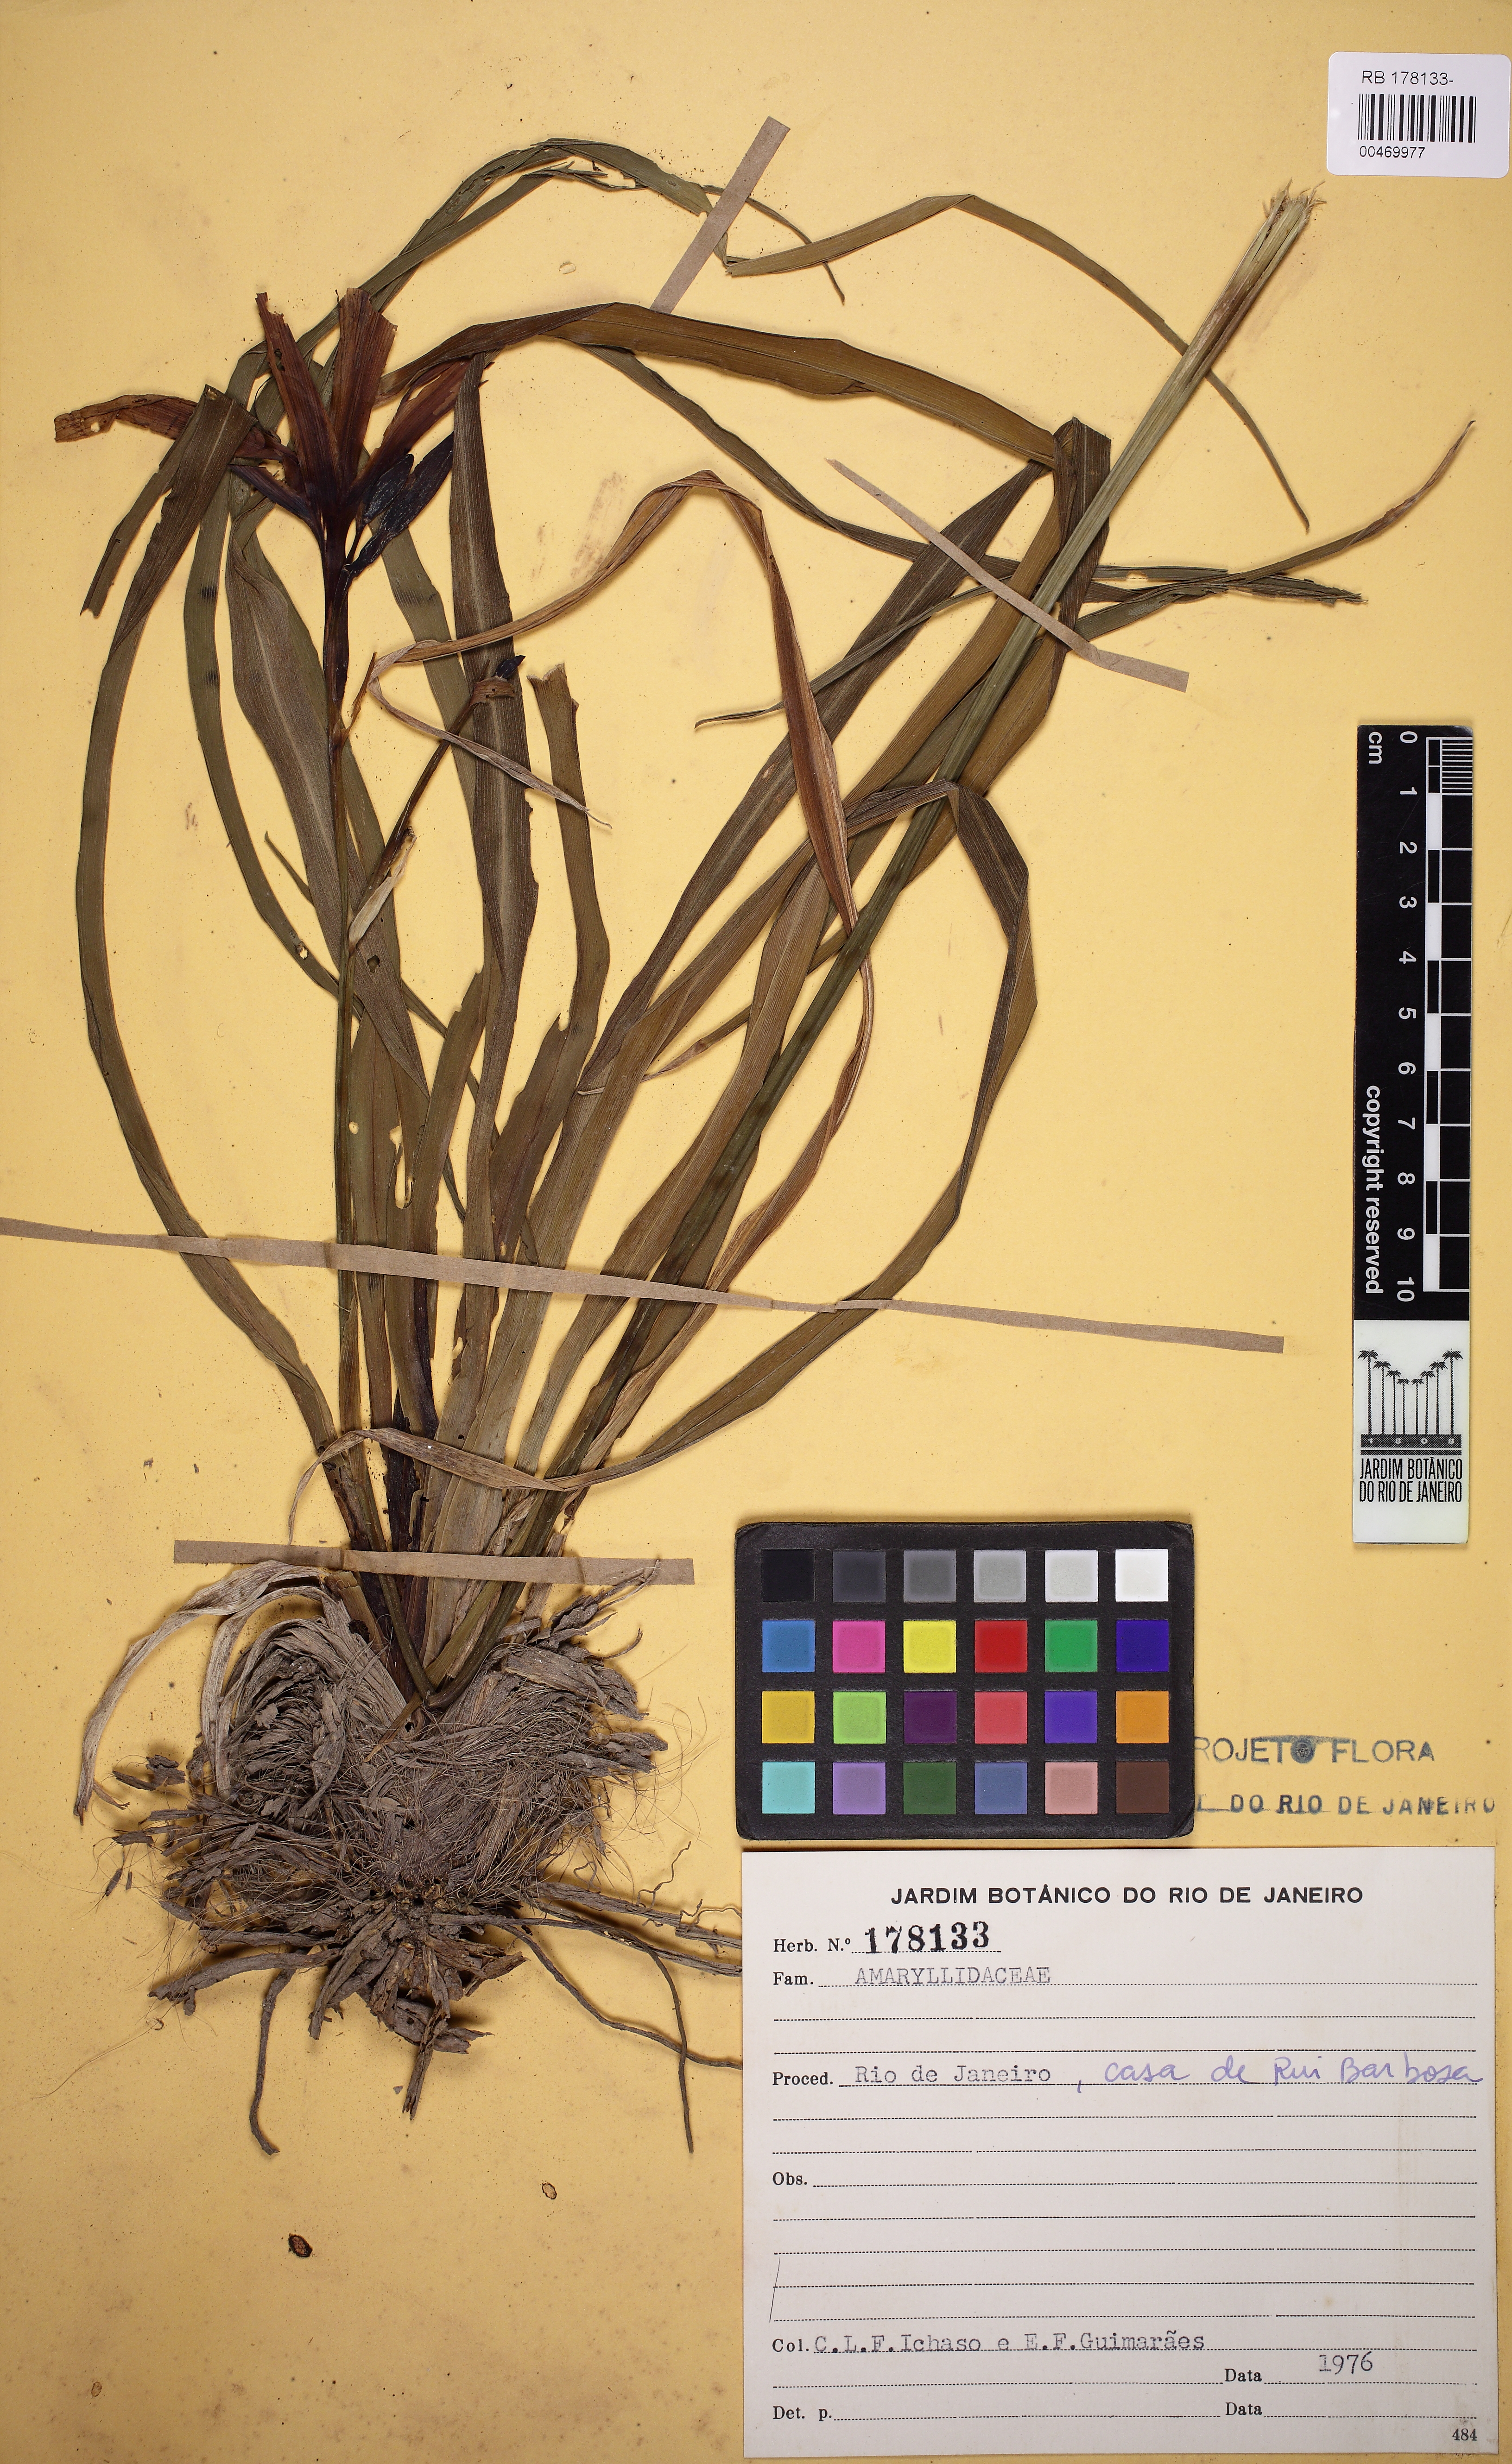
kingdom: Plantae
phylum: Tracheophyta
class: Liliopsida
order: Asparagales
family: Iridaceae
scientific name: Iridaceae
